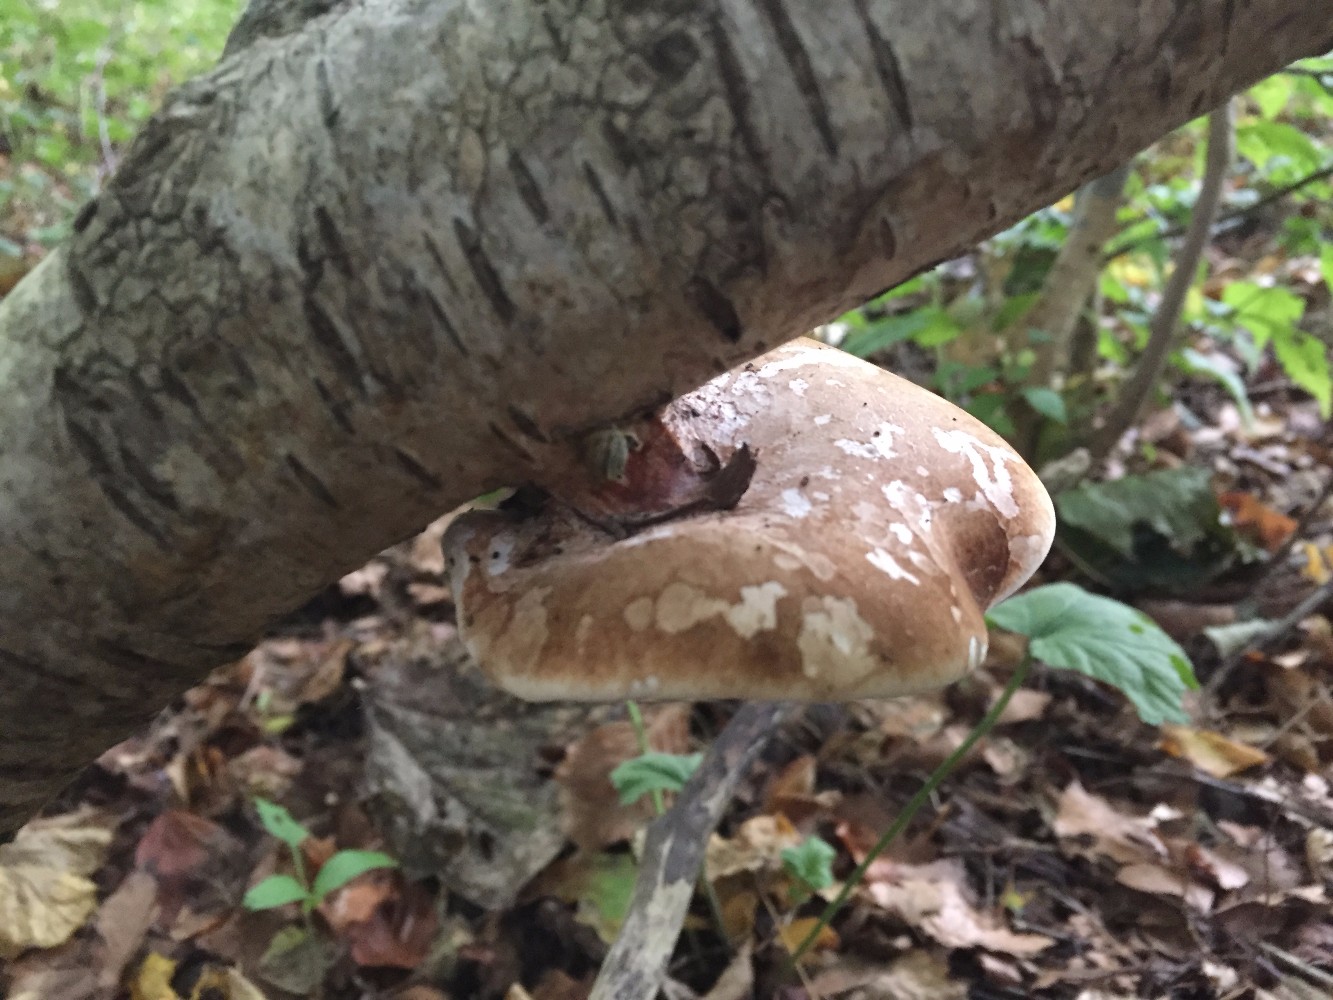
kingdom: Fungi
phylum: Basidiomycota
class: Agaricomycetes
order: Polyporales
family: Fomitopsidaceae
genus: Fomitopsis
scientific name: Fomitopsis betulina
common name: birkeporesvamp
